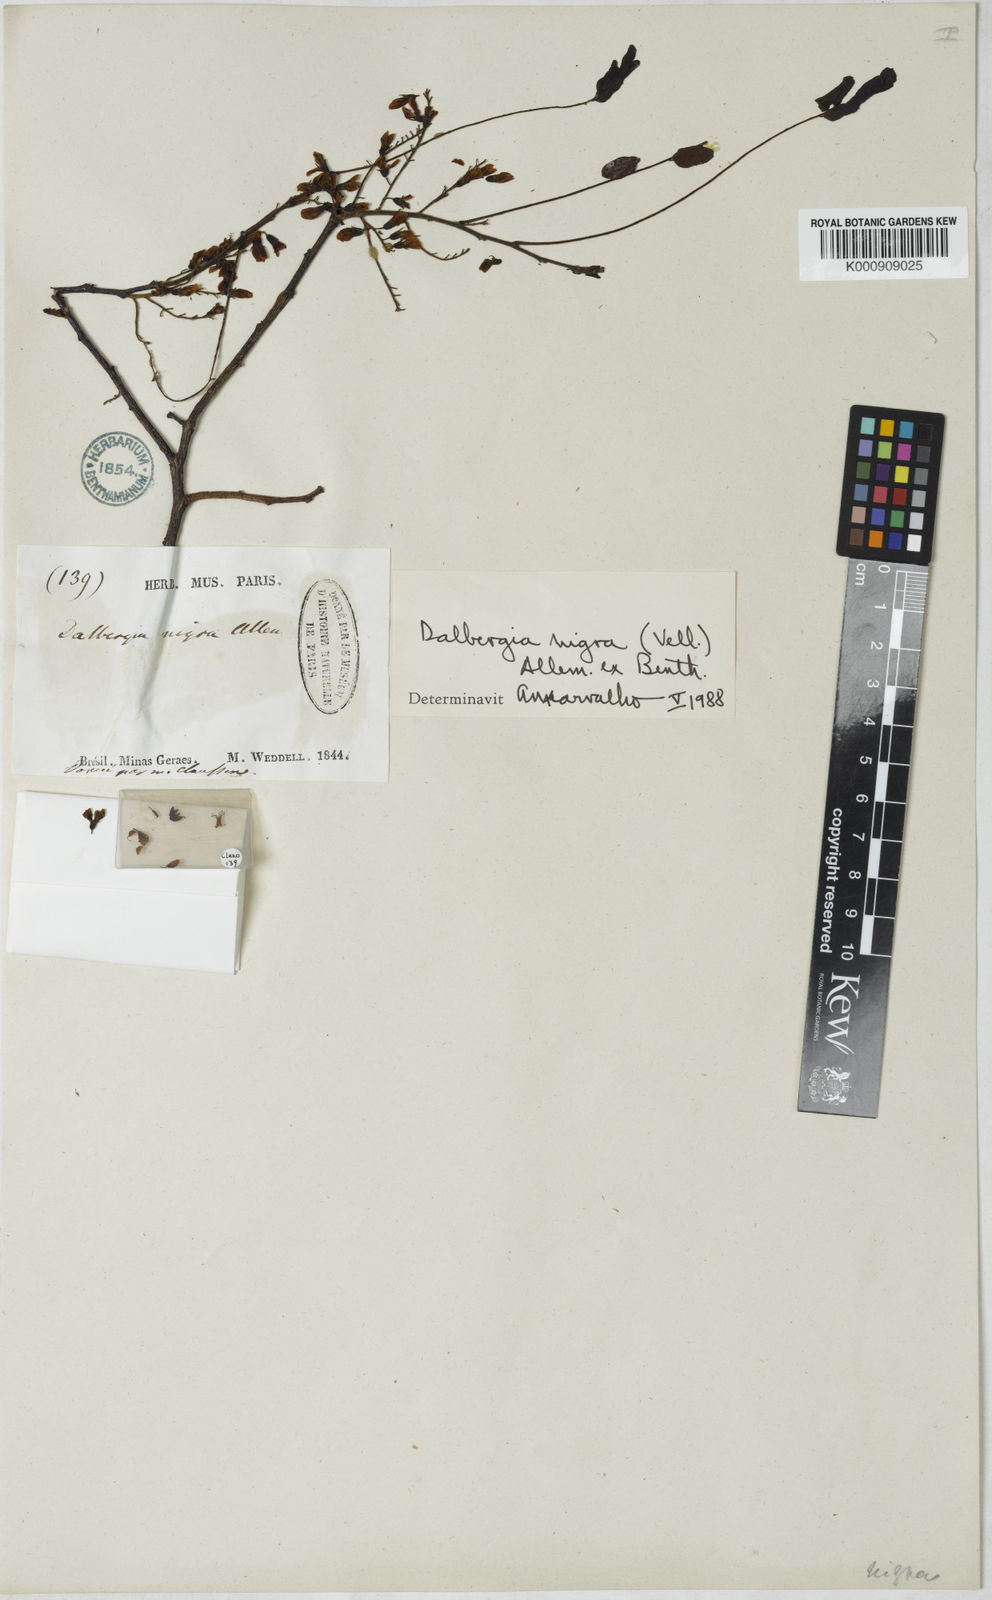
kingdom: Plantae
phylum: Tracheophyta
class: Magnoliopsida
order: Fabales
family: Fabaceae
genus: Dalbergia
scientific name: Dalbergia
